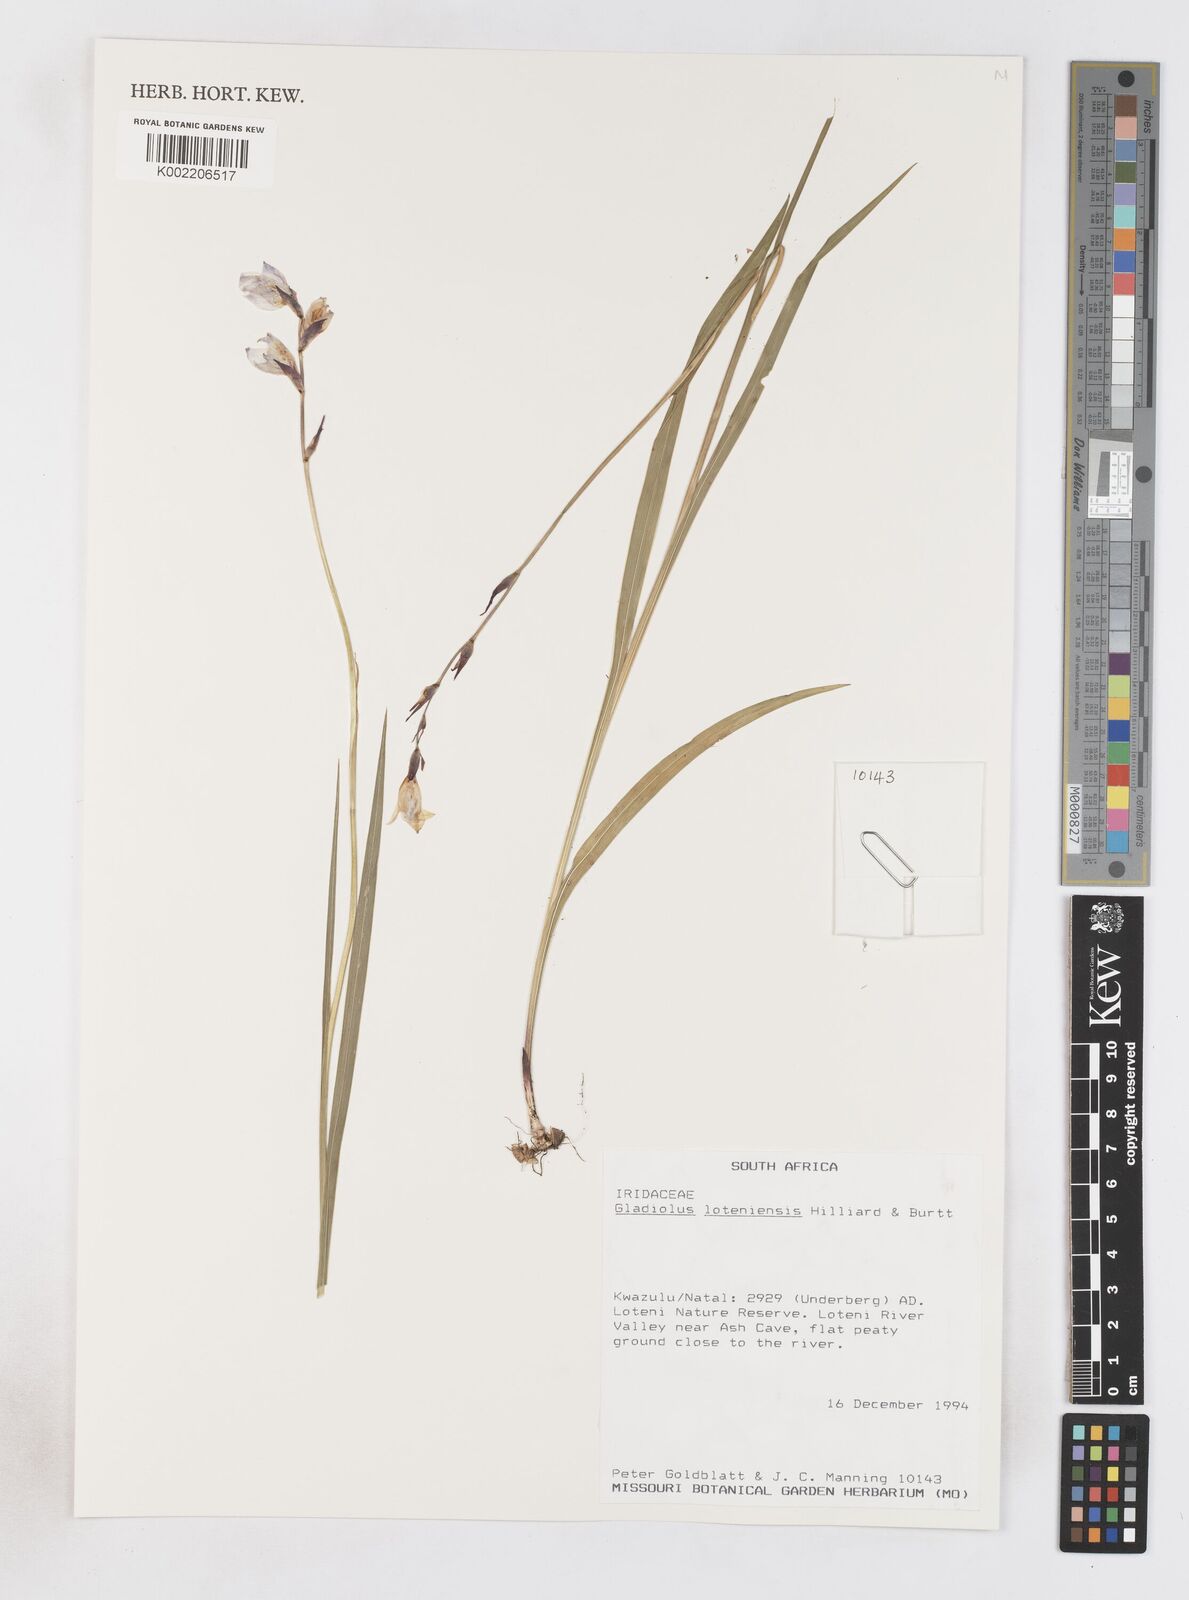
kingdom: Plantae
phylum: Tracheophyta
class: Liliopsida
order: Asparagales
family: Iridaceae
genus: Gladiolus
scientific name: Gladiolus loteniensis
